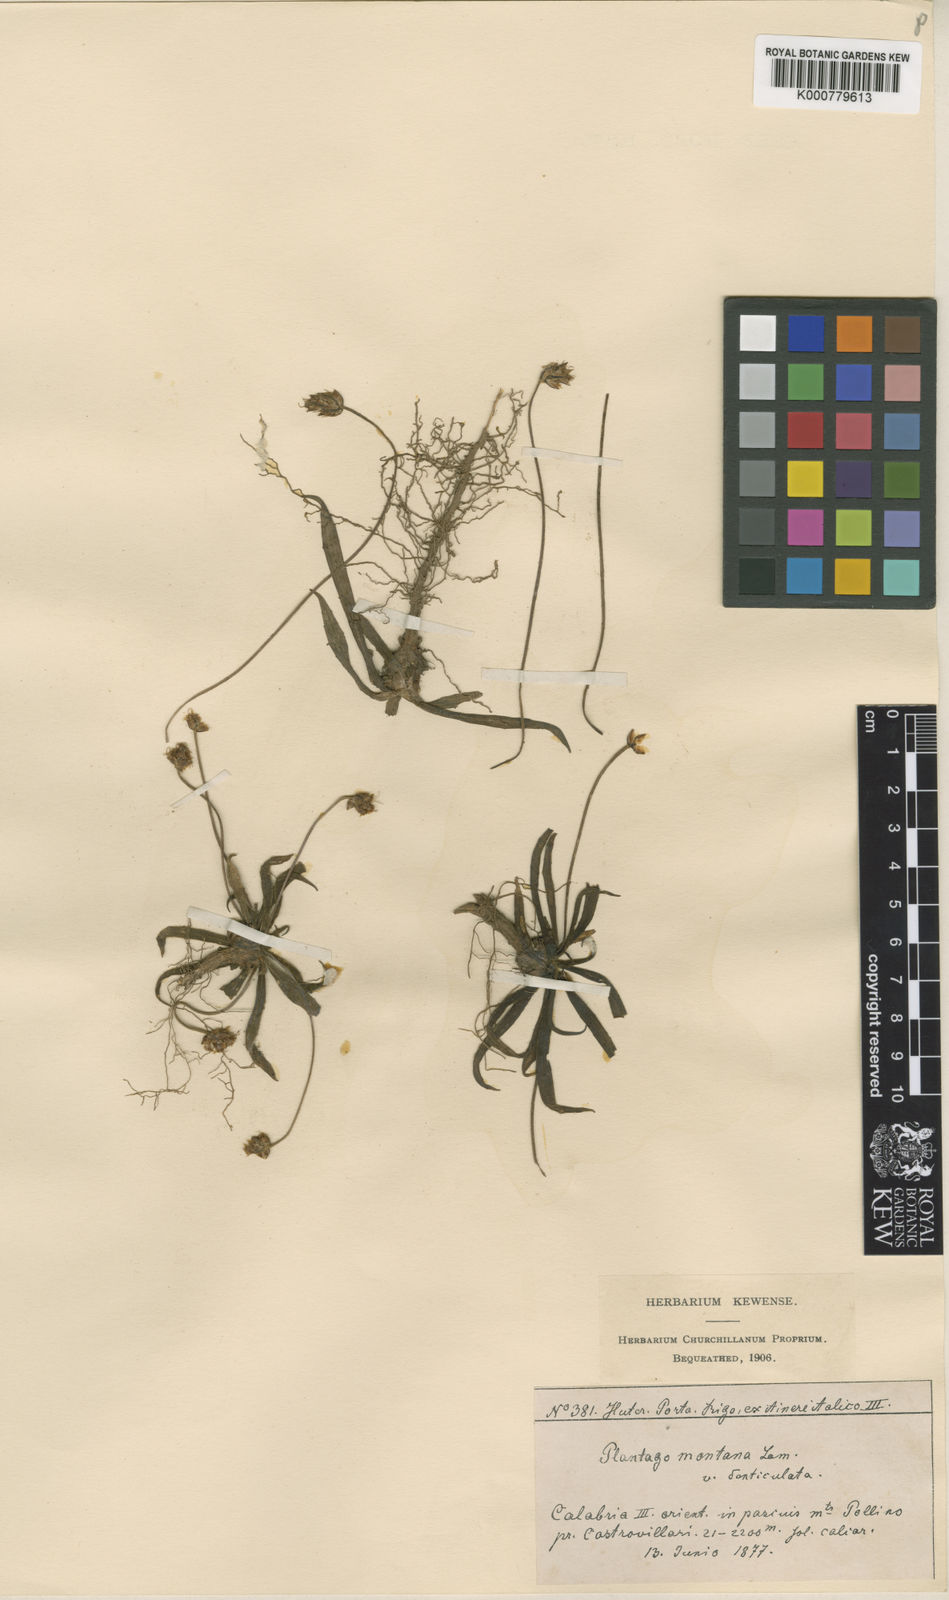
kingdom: Plantae
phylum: Tracheophyta
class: Magnoliopsida
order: Lamiales
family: Plantaginaceae
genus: Plantago
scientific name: Plantago atrata
